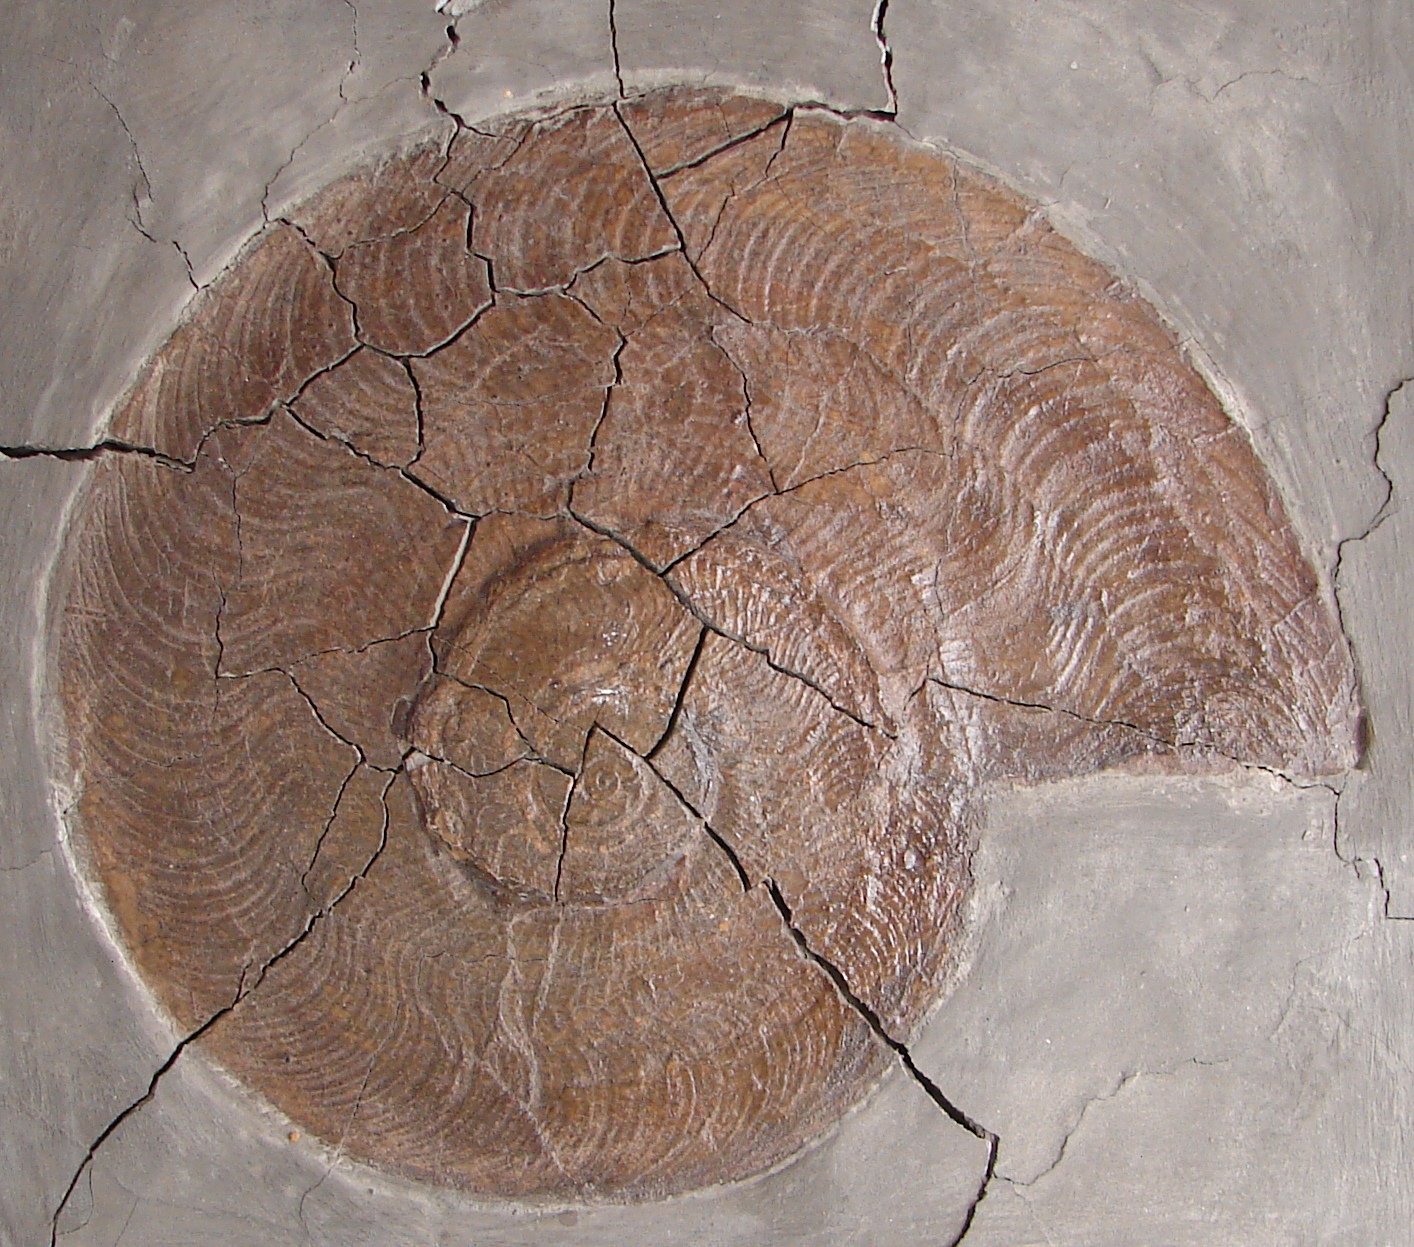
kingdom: Animalia
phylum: Mollusca
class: Cephalopoda
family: Hildoceratidae
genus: Harpoceras
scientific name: Harpoceras falciferum
